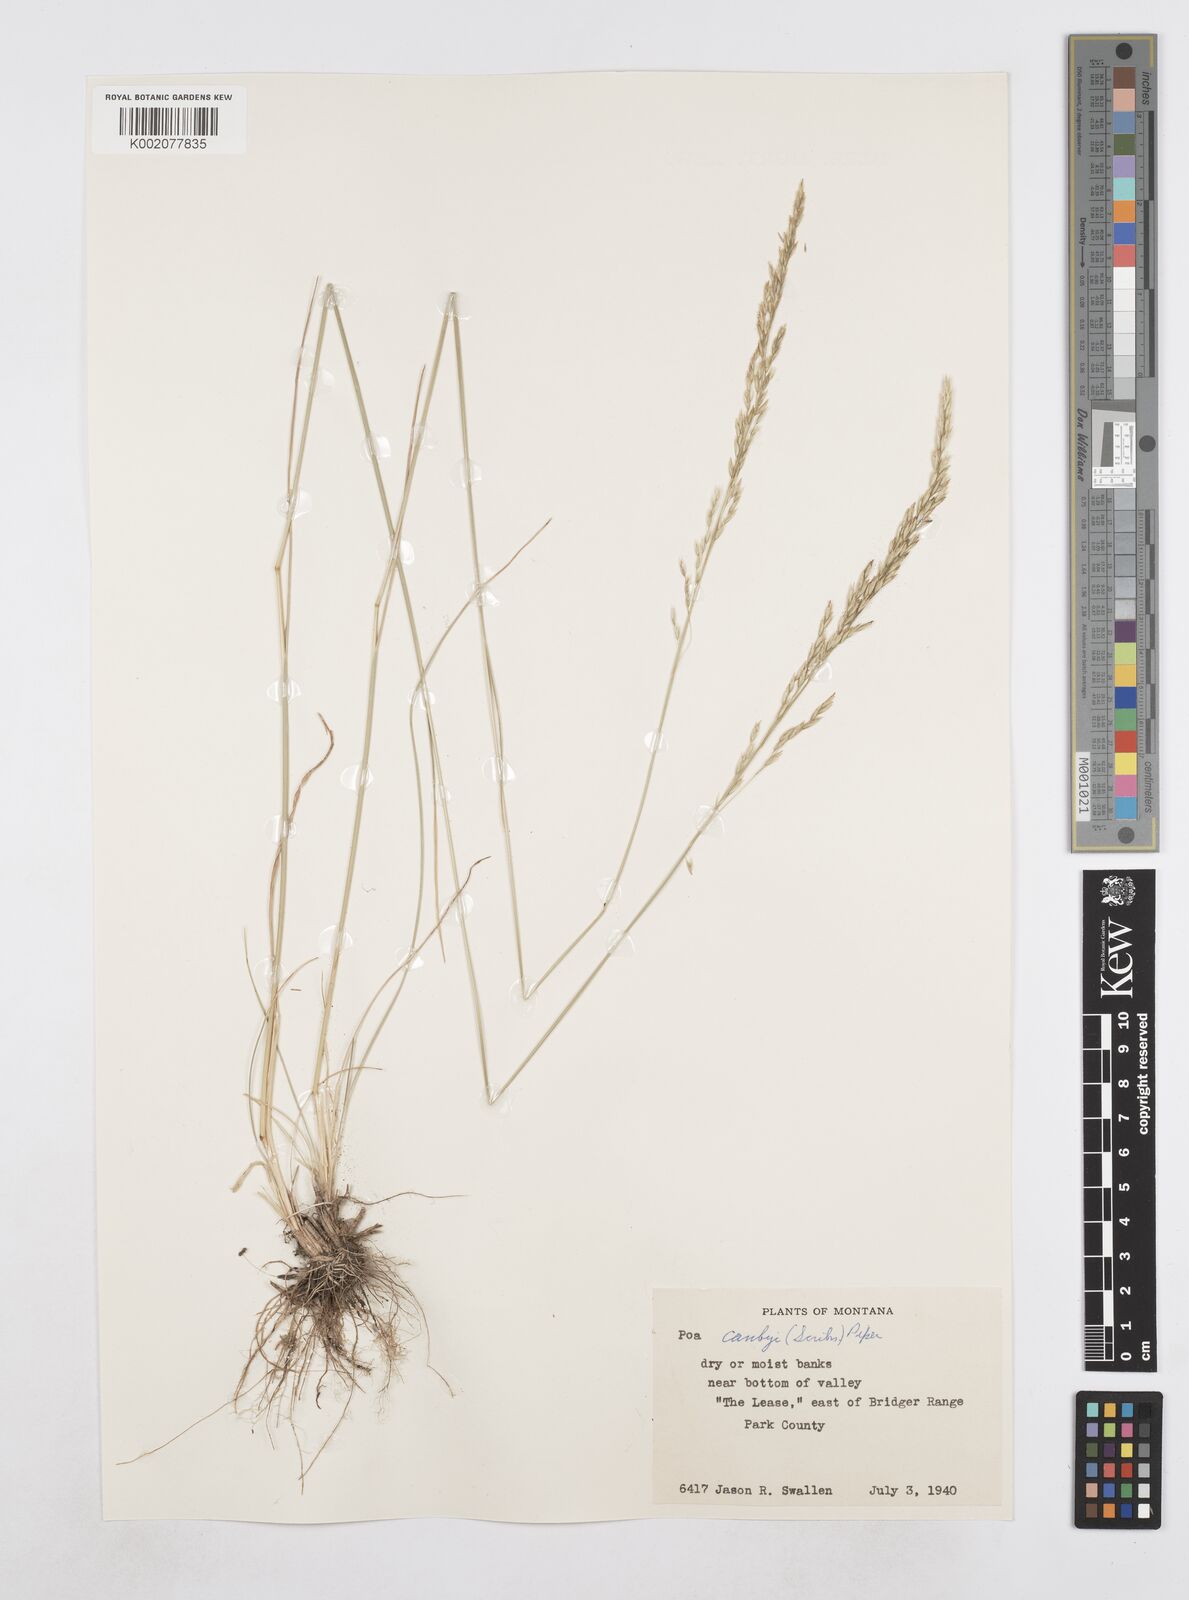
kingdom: Plantae
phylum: Tracheophyta
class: Liliopsida
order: Poales
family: Poaceae
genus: Poa
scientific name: Poa secunda
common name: Sandberg bluegrass
